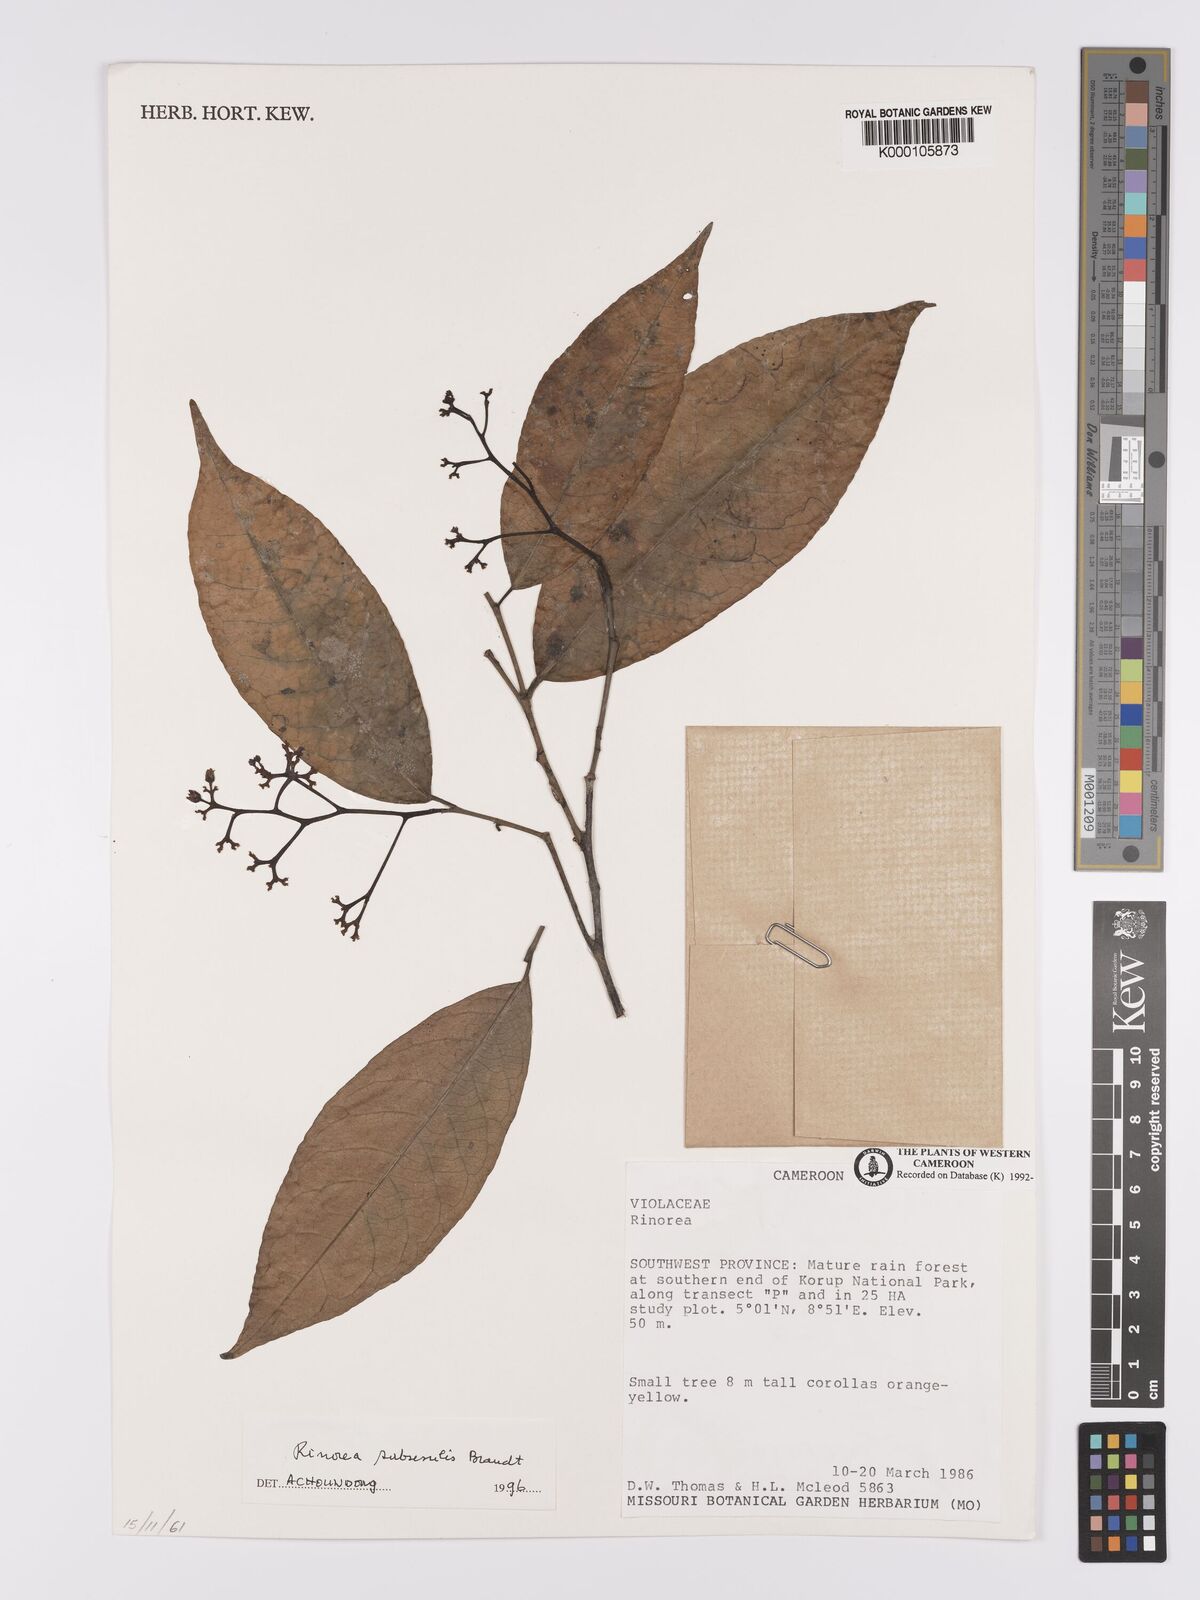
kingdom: Plantae
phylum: Tracheophyta
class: Magnoliopsida
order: Malpighiales
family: Violaceae
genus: Rinorea
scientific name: Rinorea subsessilis
